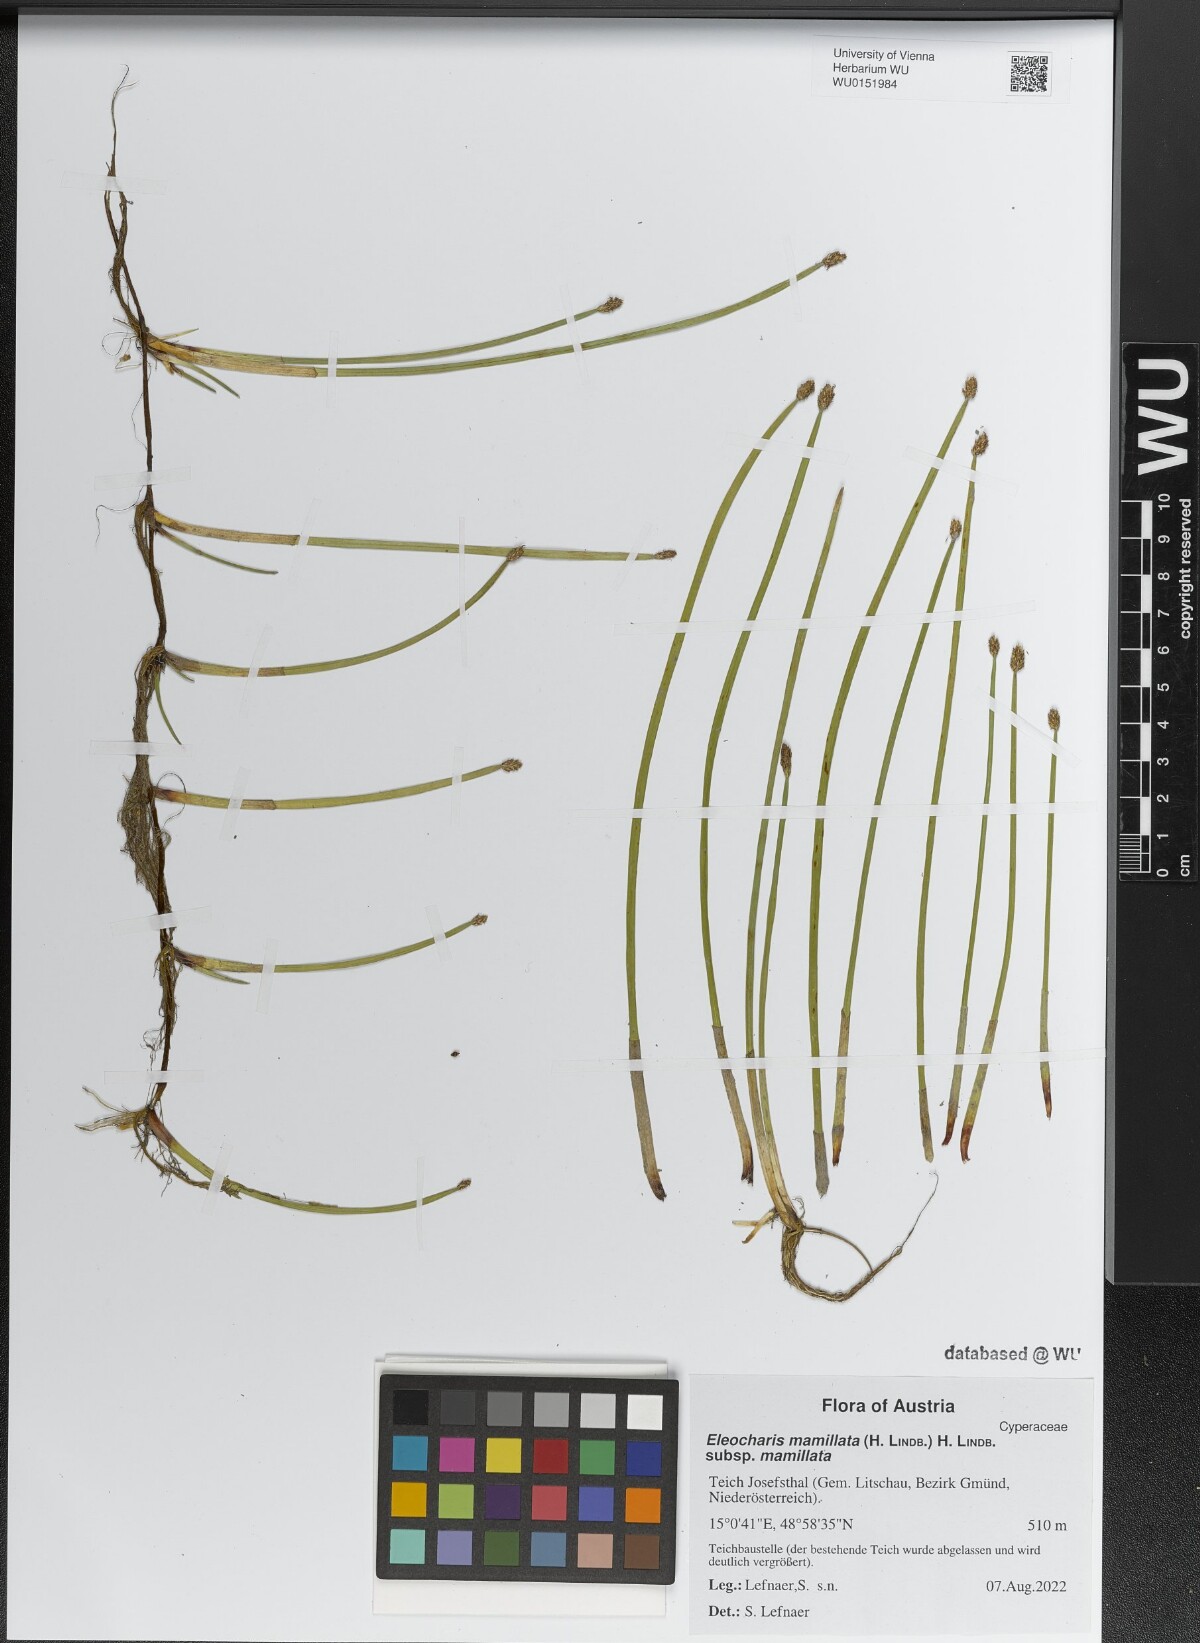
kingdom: Plantae
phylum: Tracheophyta
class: Liliopsida
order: Poales
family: Cyperaceae
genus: Eleocharis
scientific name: Eleocharis mamillata
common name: Northern spike-rush
